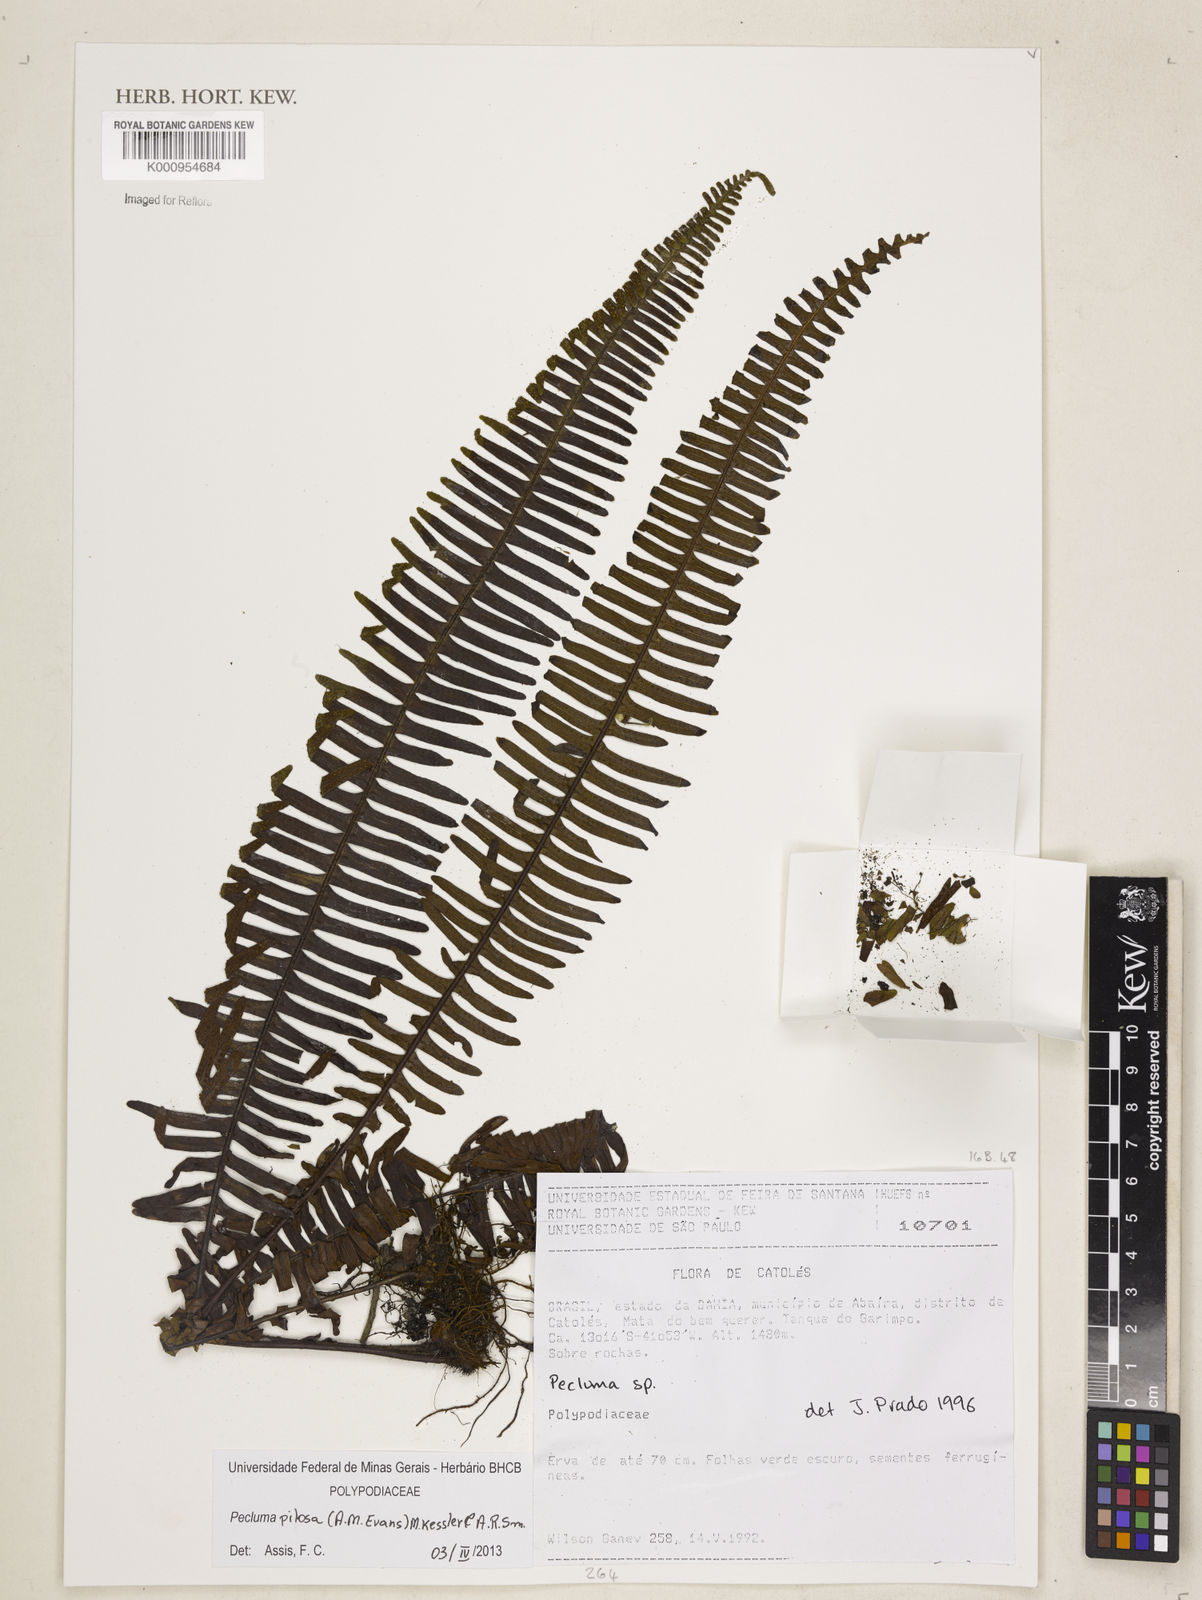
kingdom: Plantae
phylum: Tracheophyta
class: Polypodiopsida
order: Polypodiales
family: Polypodiaceae
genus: Pecluma
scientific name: Pecluma pilosa
